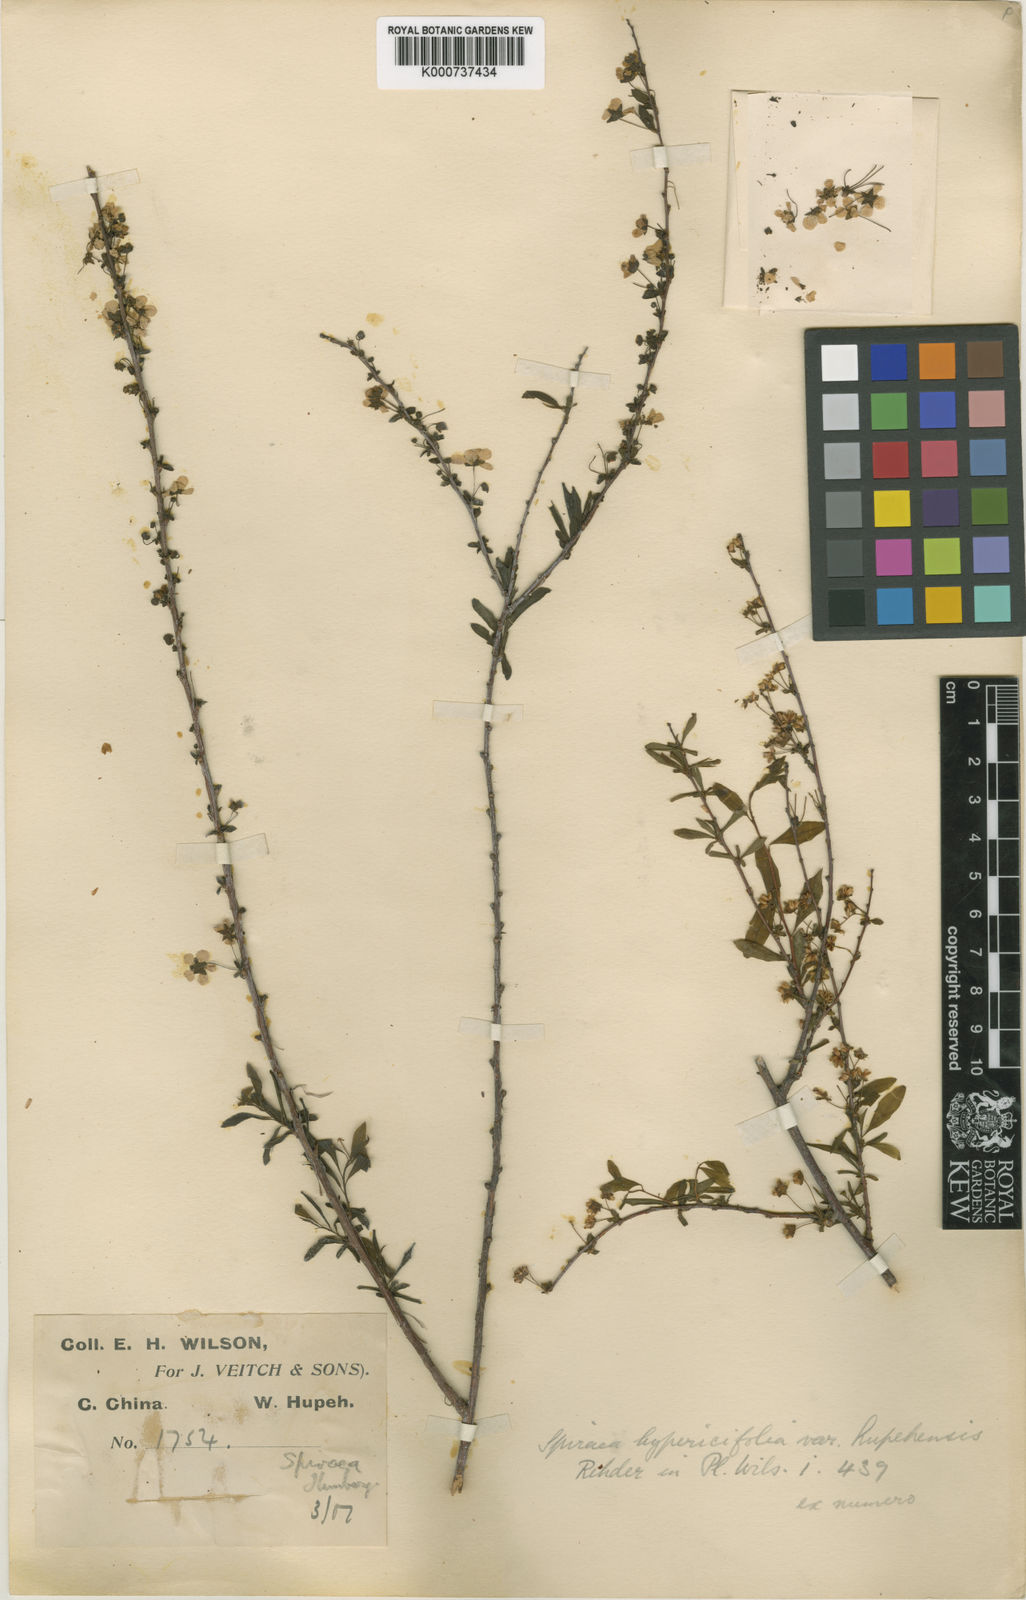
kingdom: Plantae
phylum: Tracheophyta
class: Magnoliopsida
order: Rosales
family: Rosaceae
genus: Spiraea
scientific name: Spiraea hypericifolia
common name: Iberian spirea
